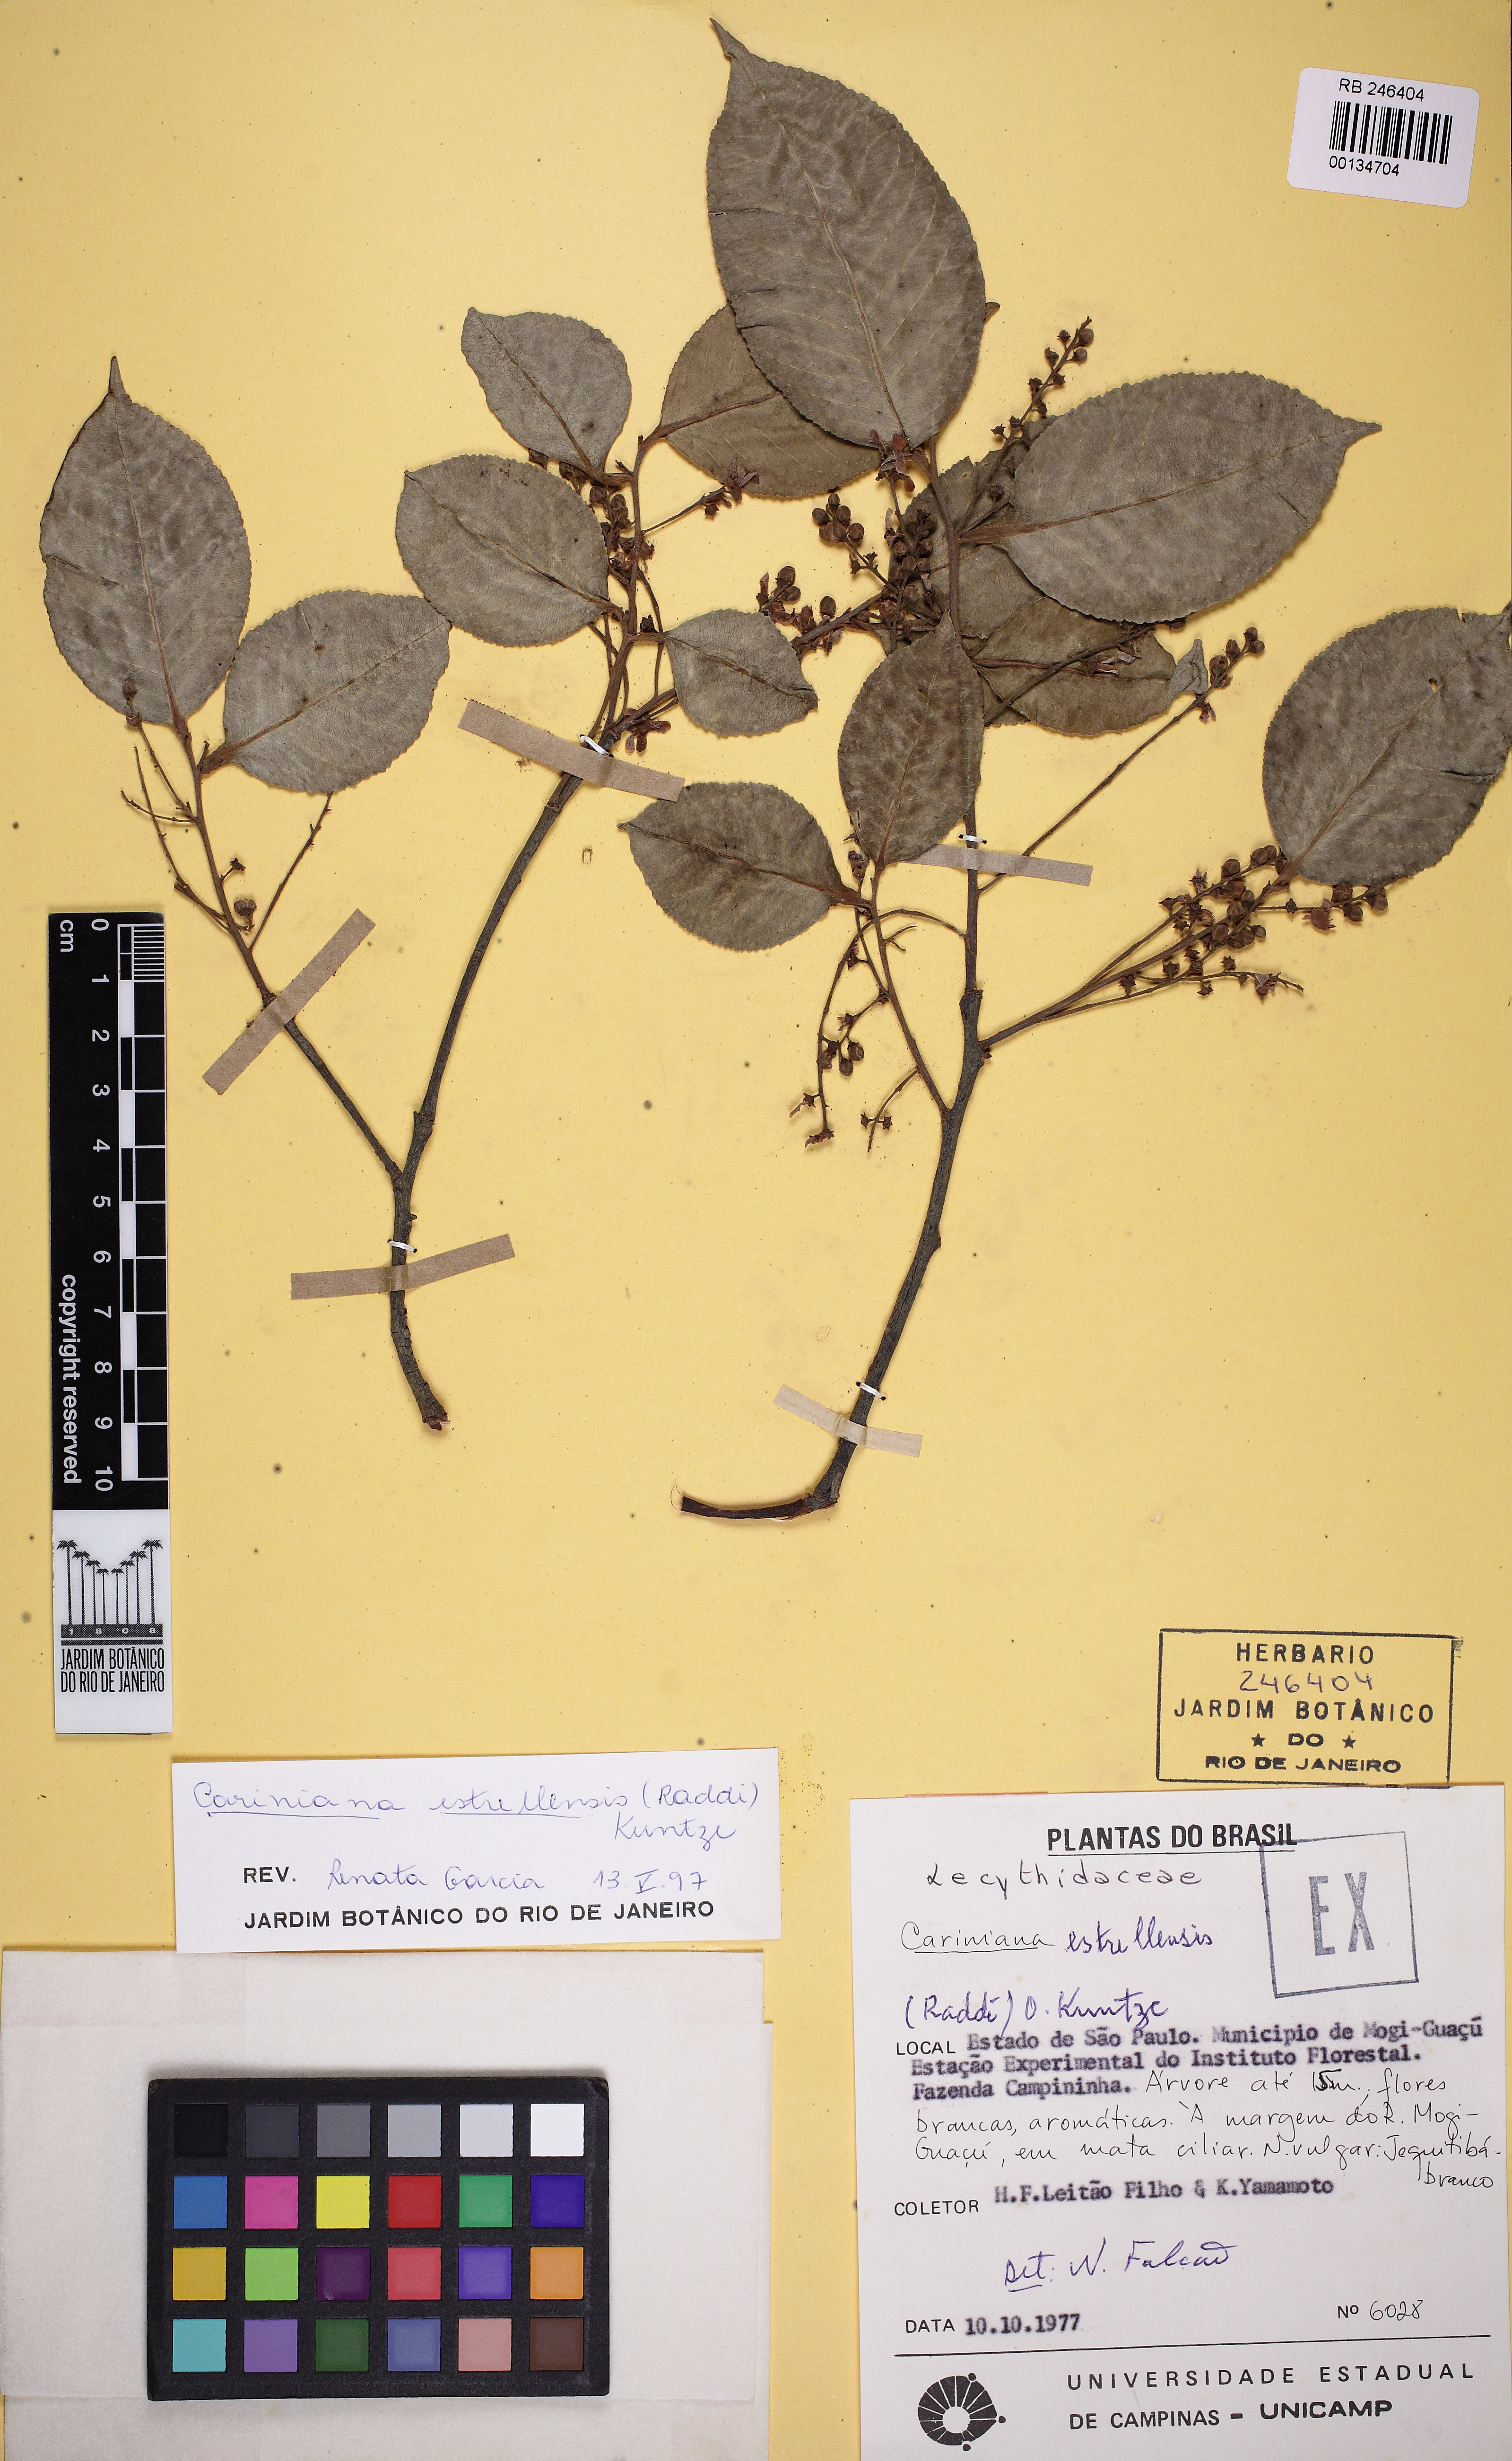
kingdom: Plantae
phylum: Tracheophyta
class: Magnoliopsida
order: Ericales
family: Lecythidaceae
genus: Cariniana
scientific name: Cariniana estrellensis
